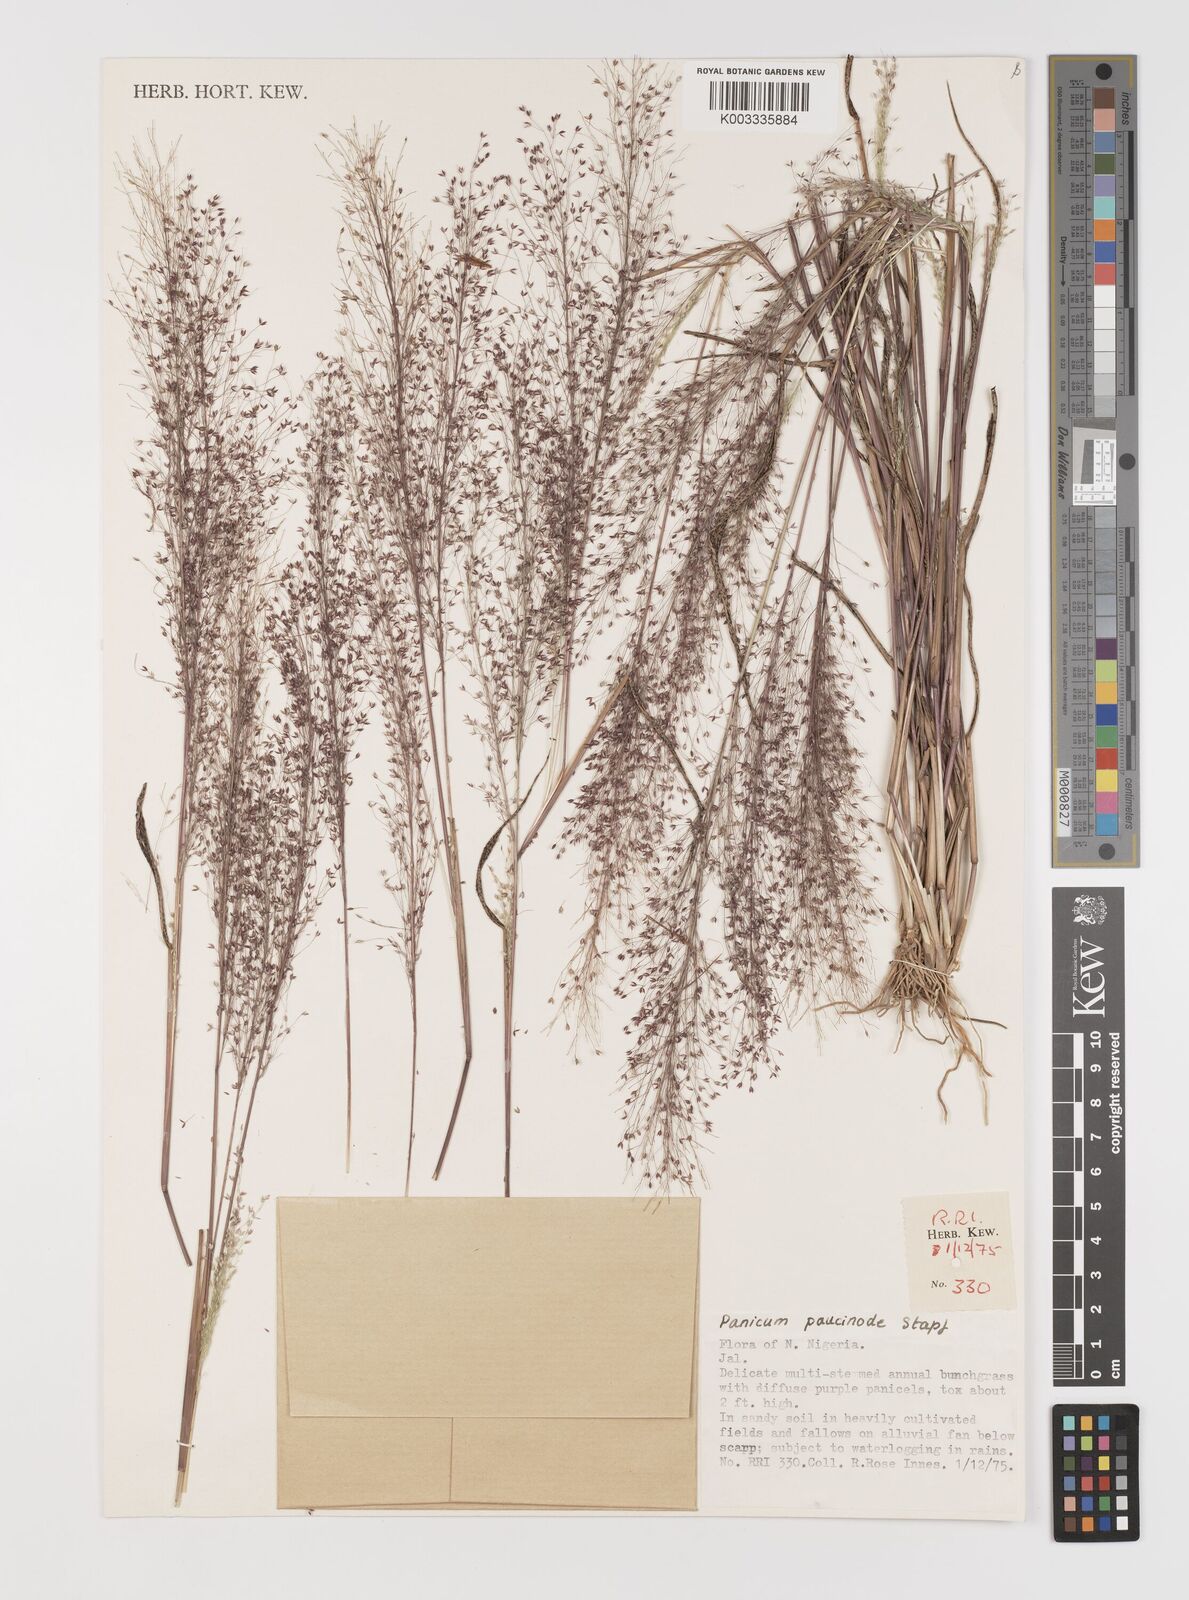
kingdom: Plantae
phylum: Tracheophyta
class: Liliopsida
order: Poales
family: Poaceae
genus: Panicum
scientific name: Panicum paucinode
